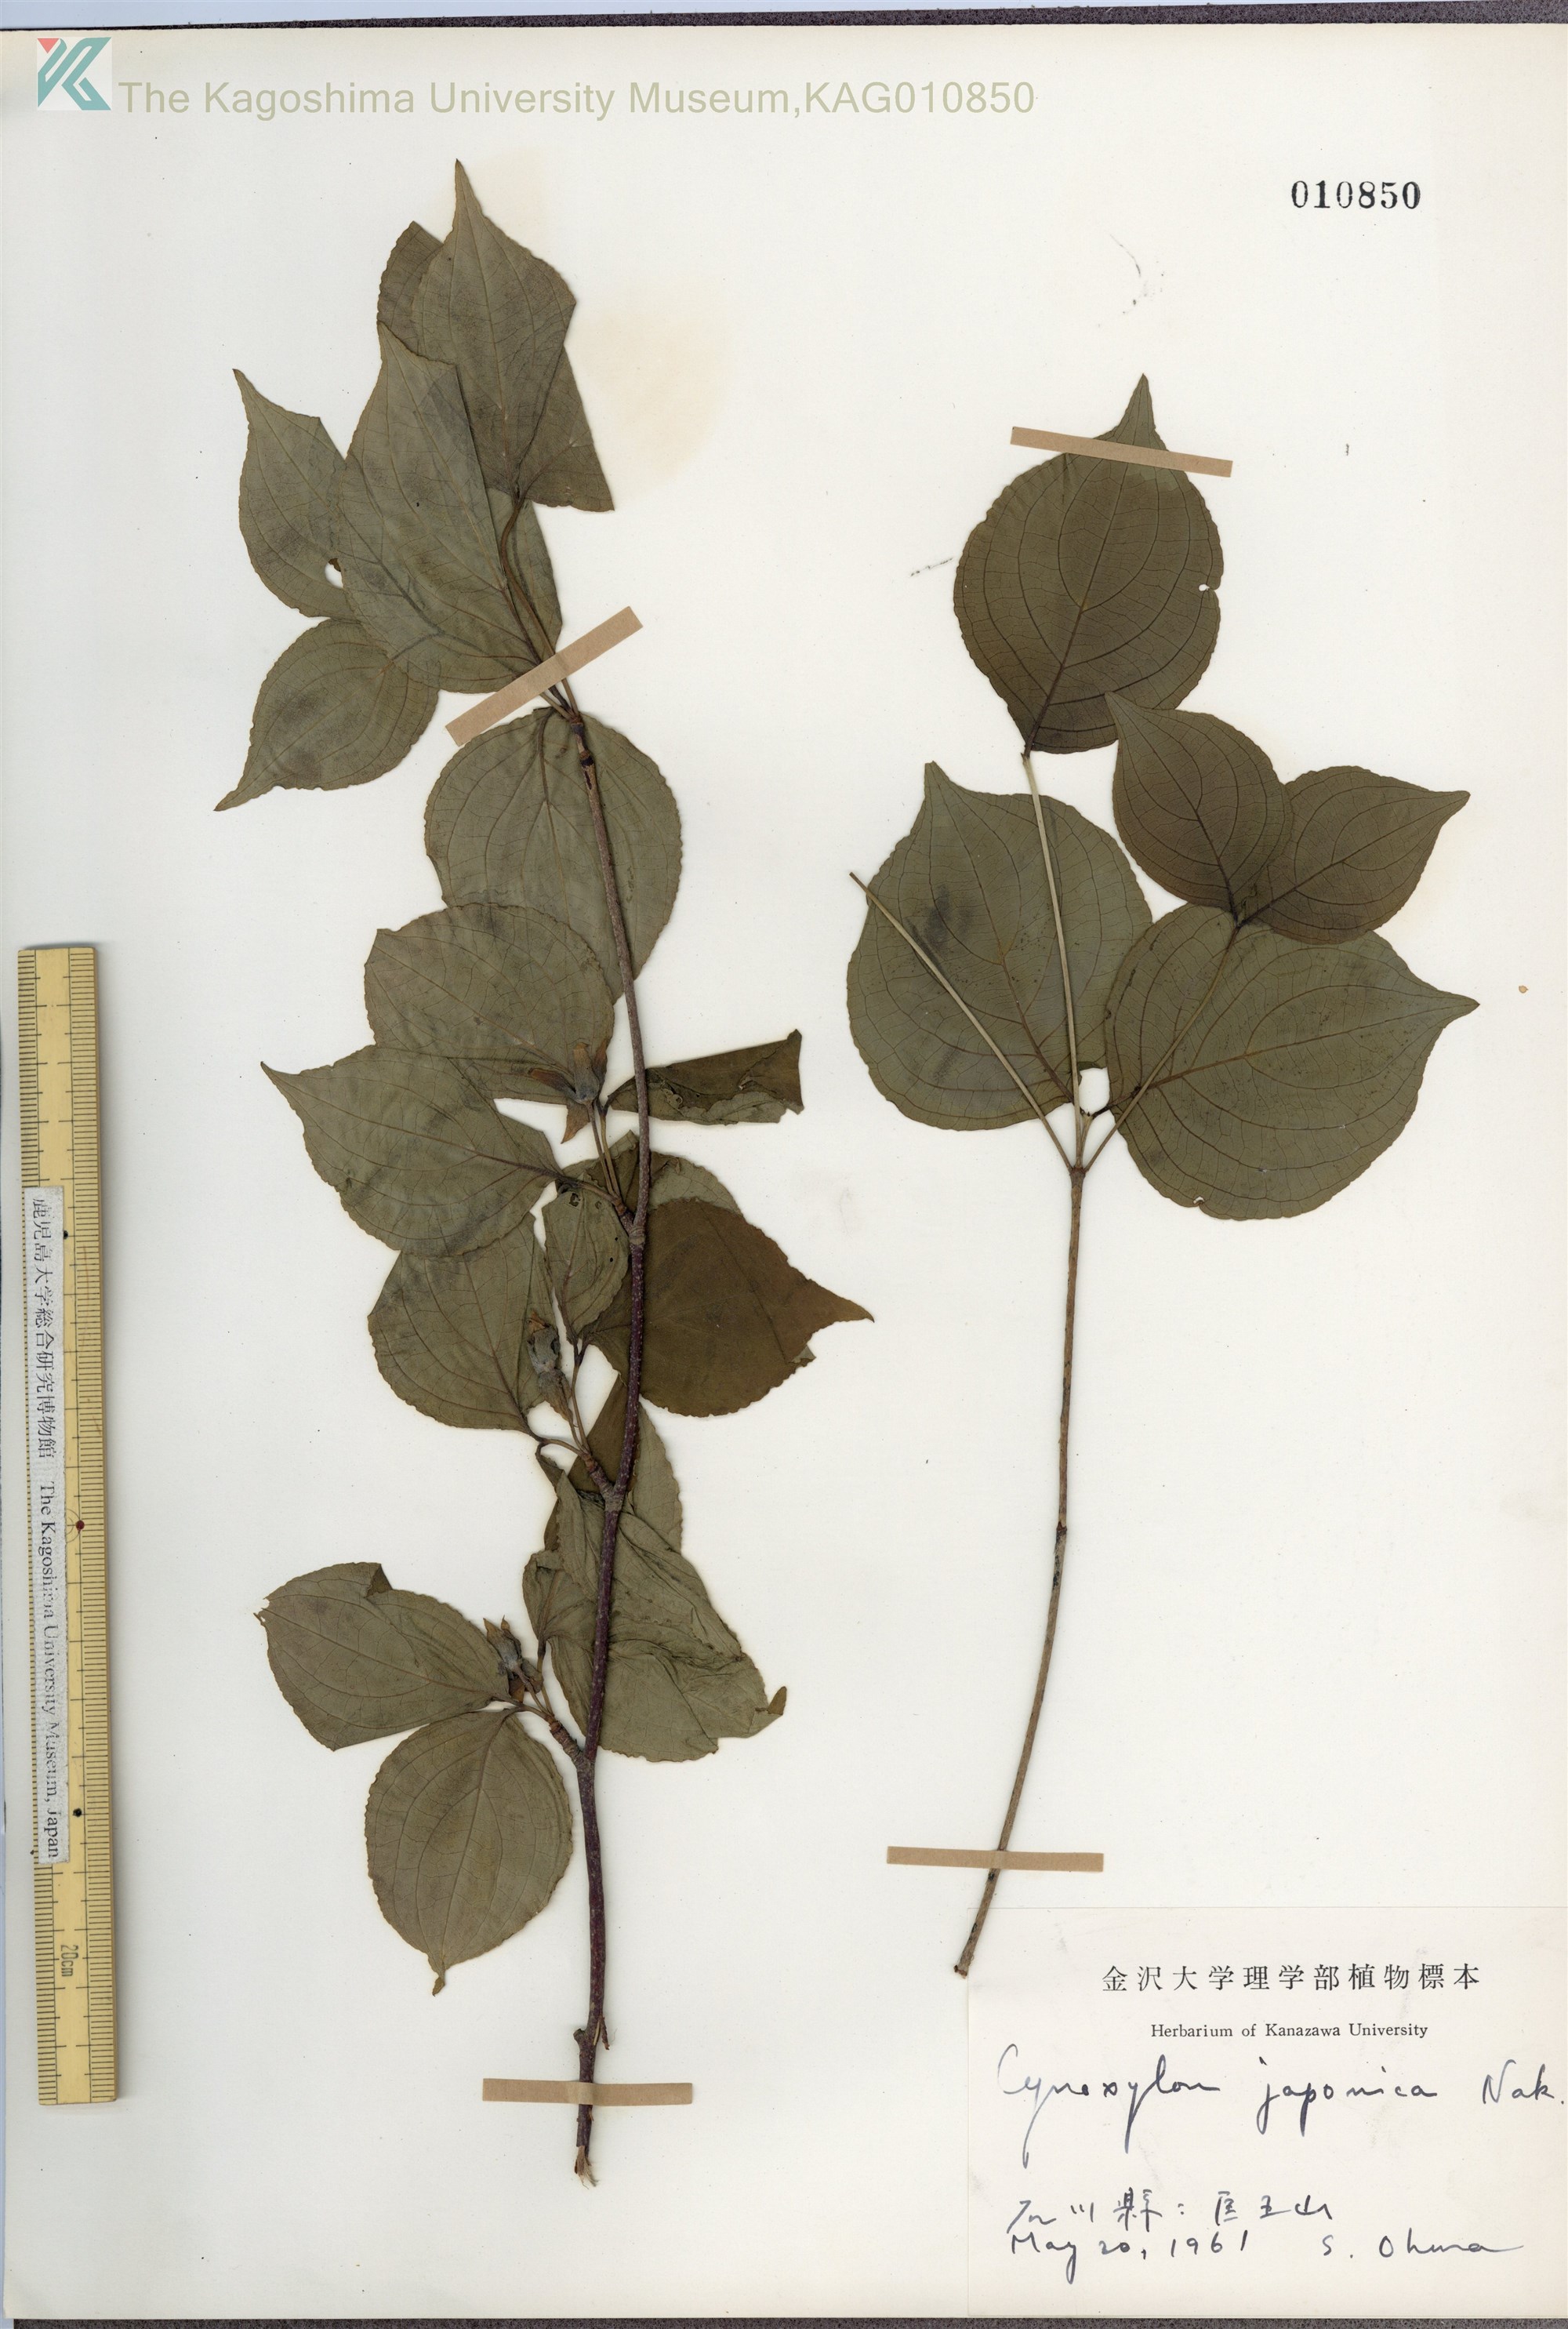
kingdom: Plantae
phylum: Tracheophyta
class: Magnoliopsida
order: Cornales
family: Cornaceae
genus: Cornus
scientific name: Cornus kousa
